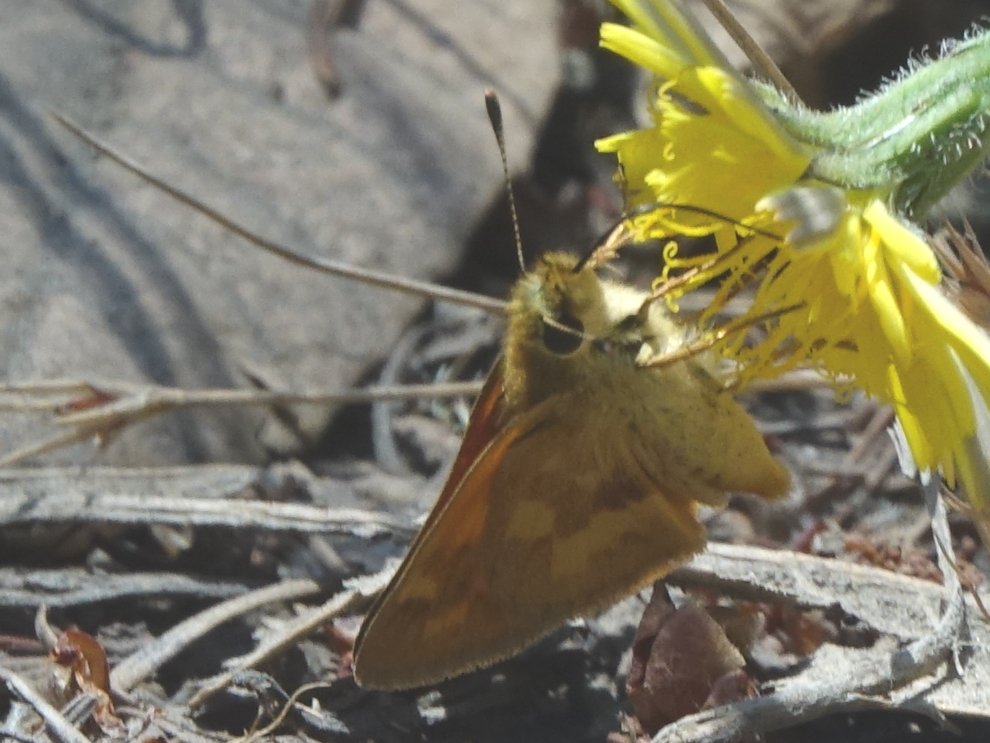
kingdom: Animalia
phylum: Arthropoda
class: Insecta
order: Lepidoptera
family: Hesperiidae
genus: Ochlodes
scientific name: Ochlodes sylvanoides
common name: Woodland Skipper
